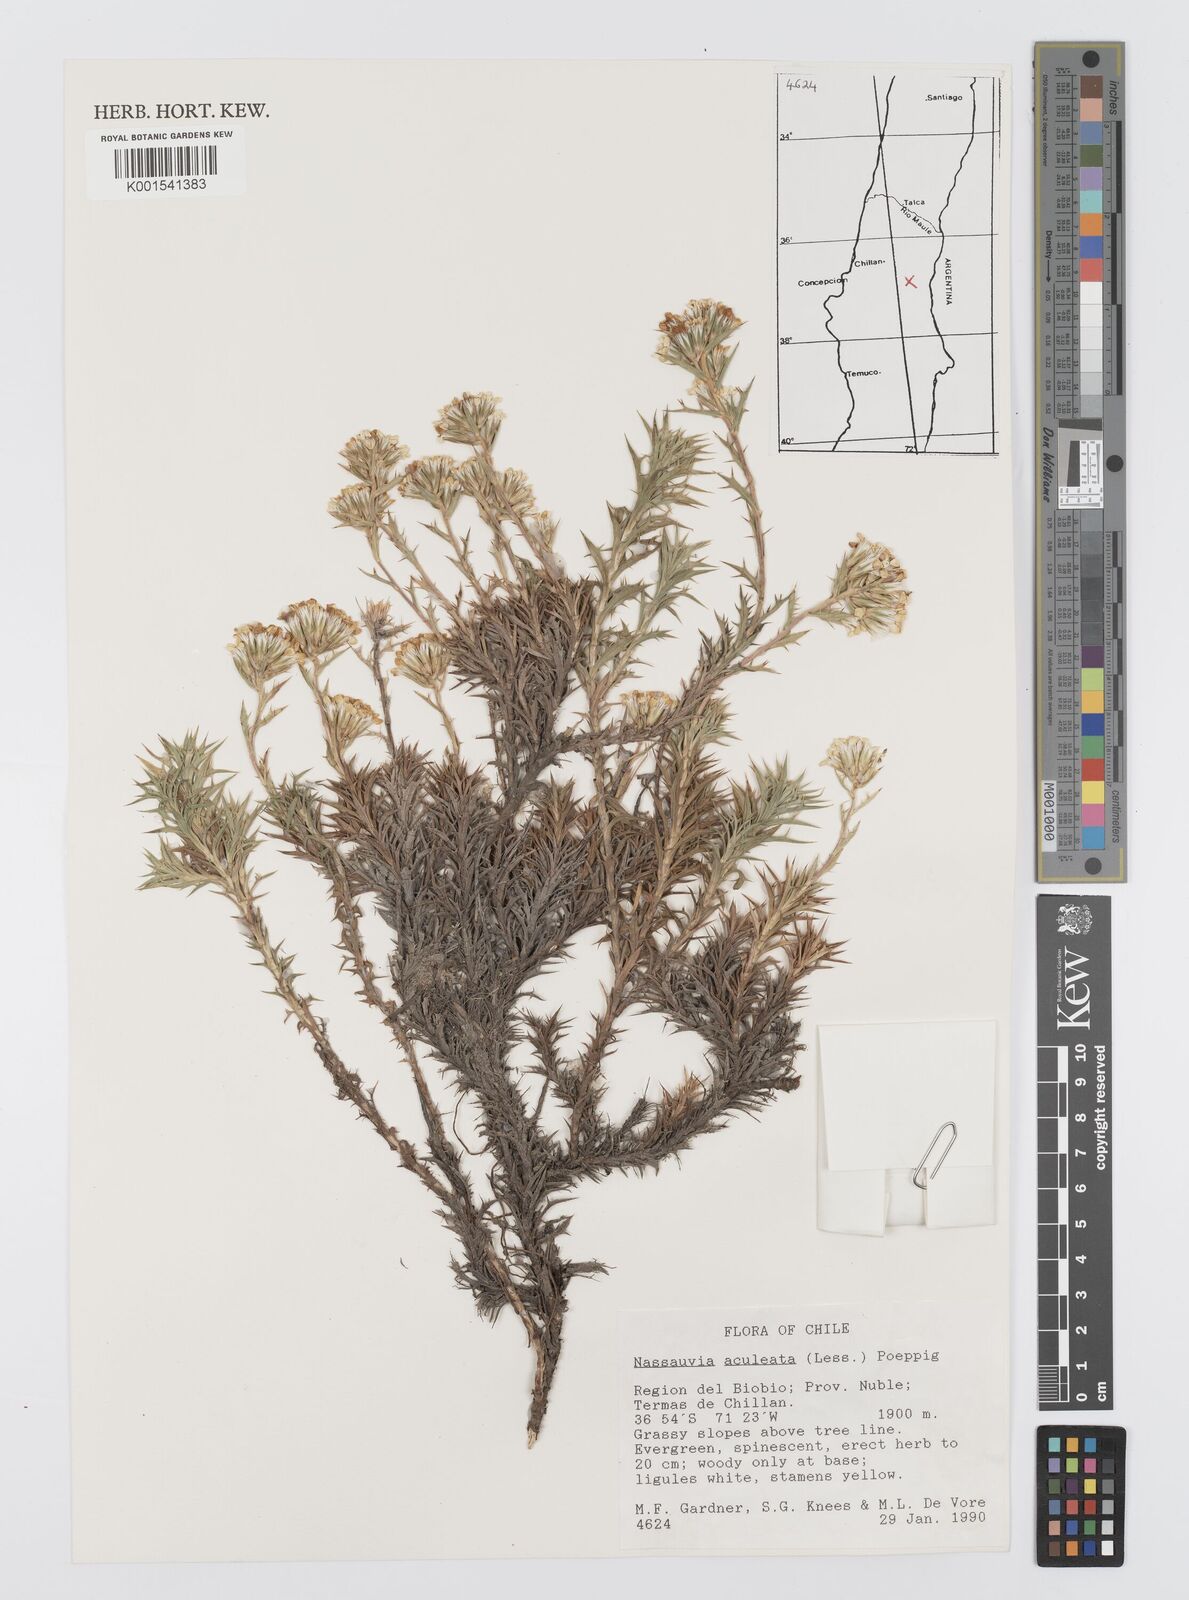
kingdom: Plantae
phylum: Tracheophyta
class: Magnoliopsida
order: Asterales
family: Asteraceae
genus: Nassauvia
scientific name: Nassauvia aculeata
